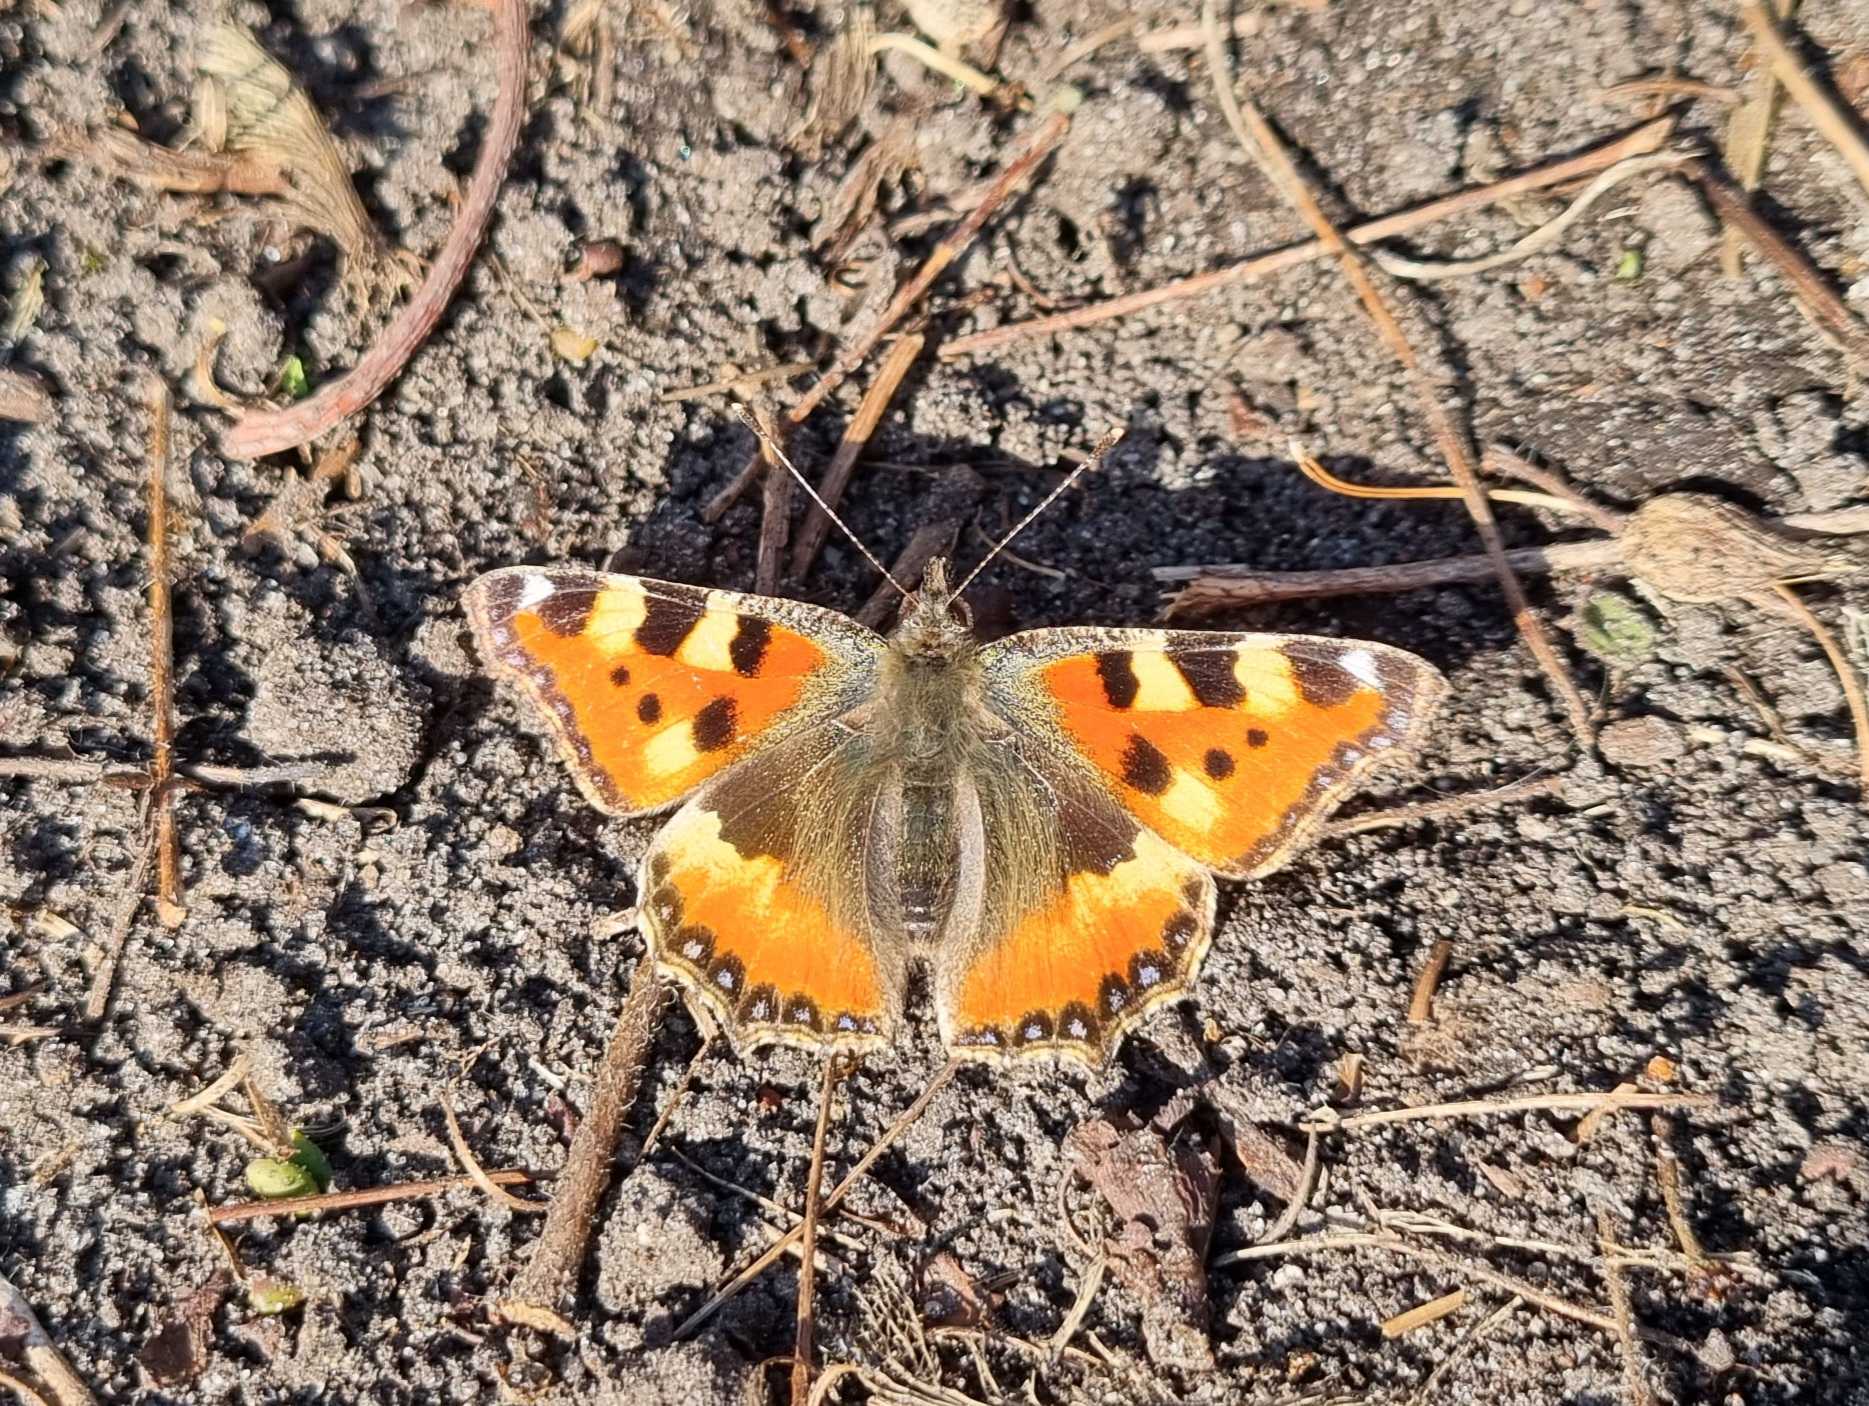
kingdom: Animalia
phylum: Arthropoda
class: Insecta
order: Lepidoptera
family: Nymphalidae
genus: Aglais
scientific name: Aglais urticae
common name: Nældens takvinge
